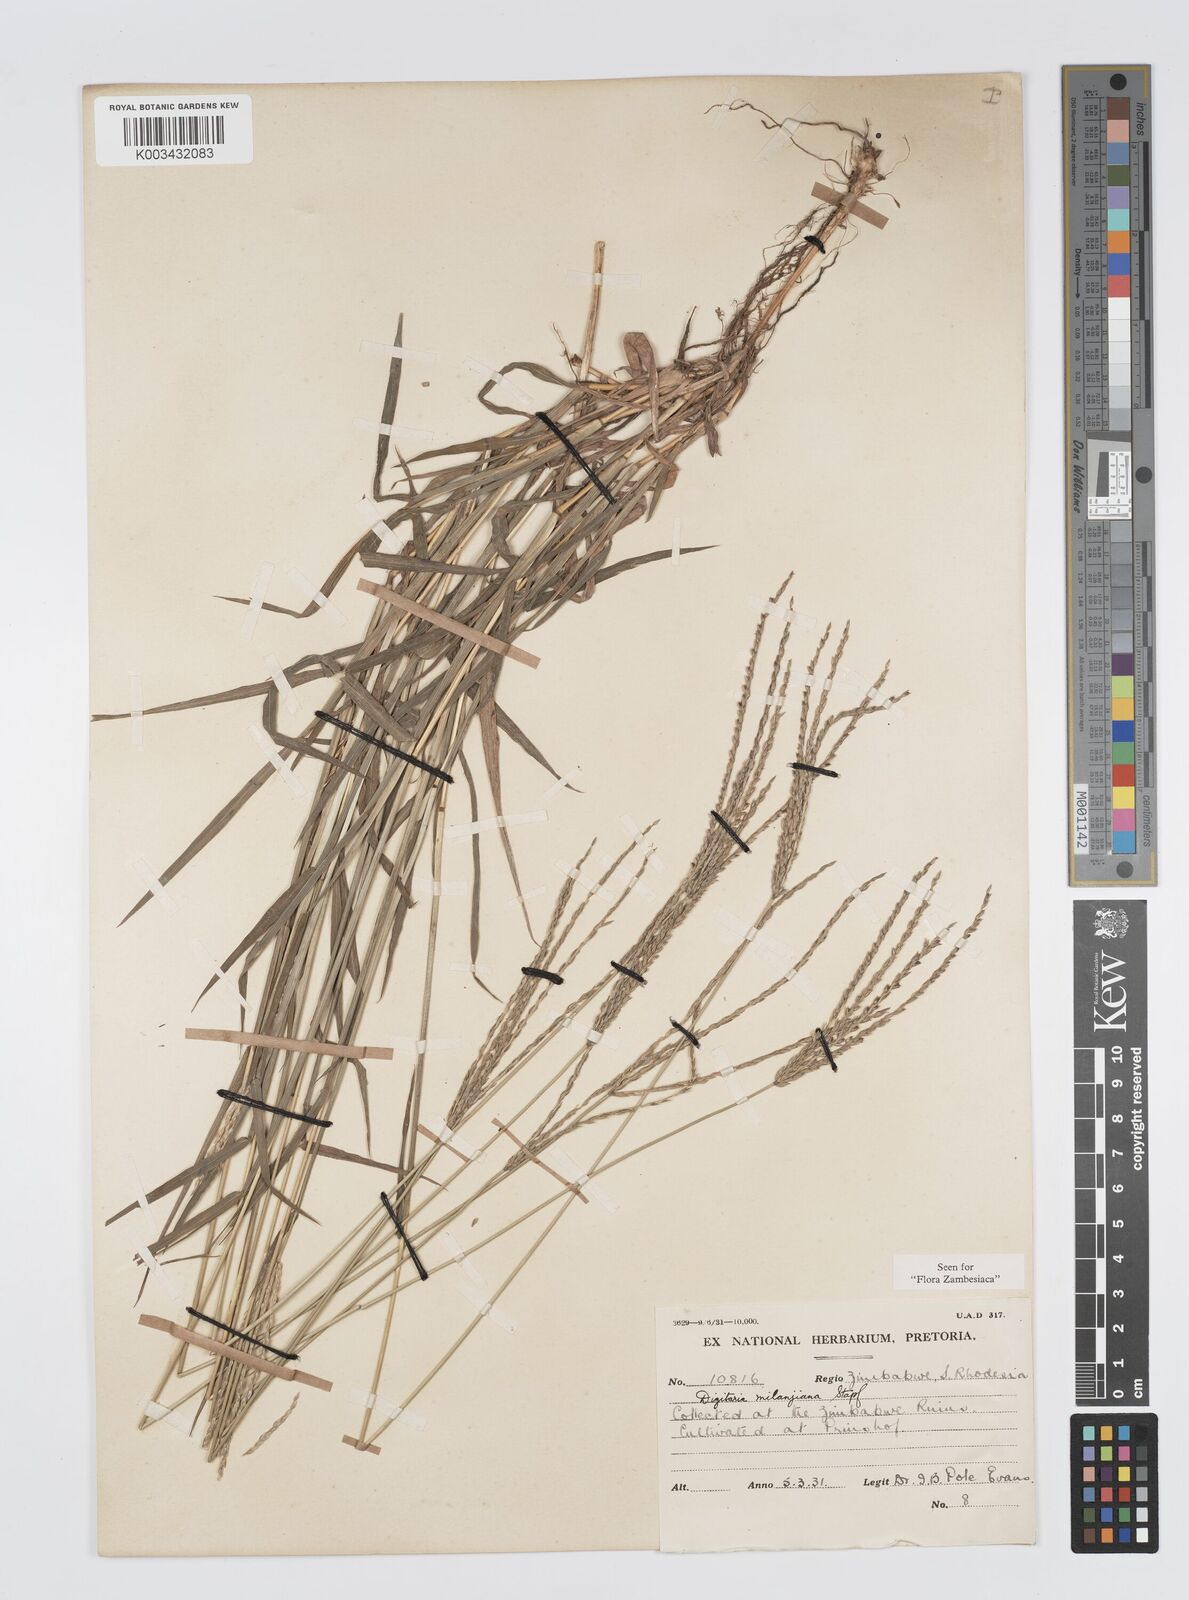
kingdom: Plantae
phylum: Tracheophyta
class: Liliopsida
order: Poales
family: Poaceae
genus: Digitaria
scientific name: Digitaria milanjiana
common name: Madagascar crabgrass
